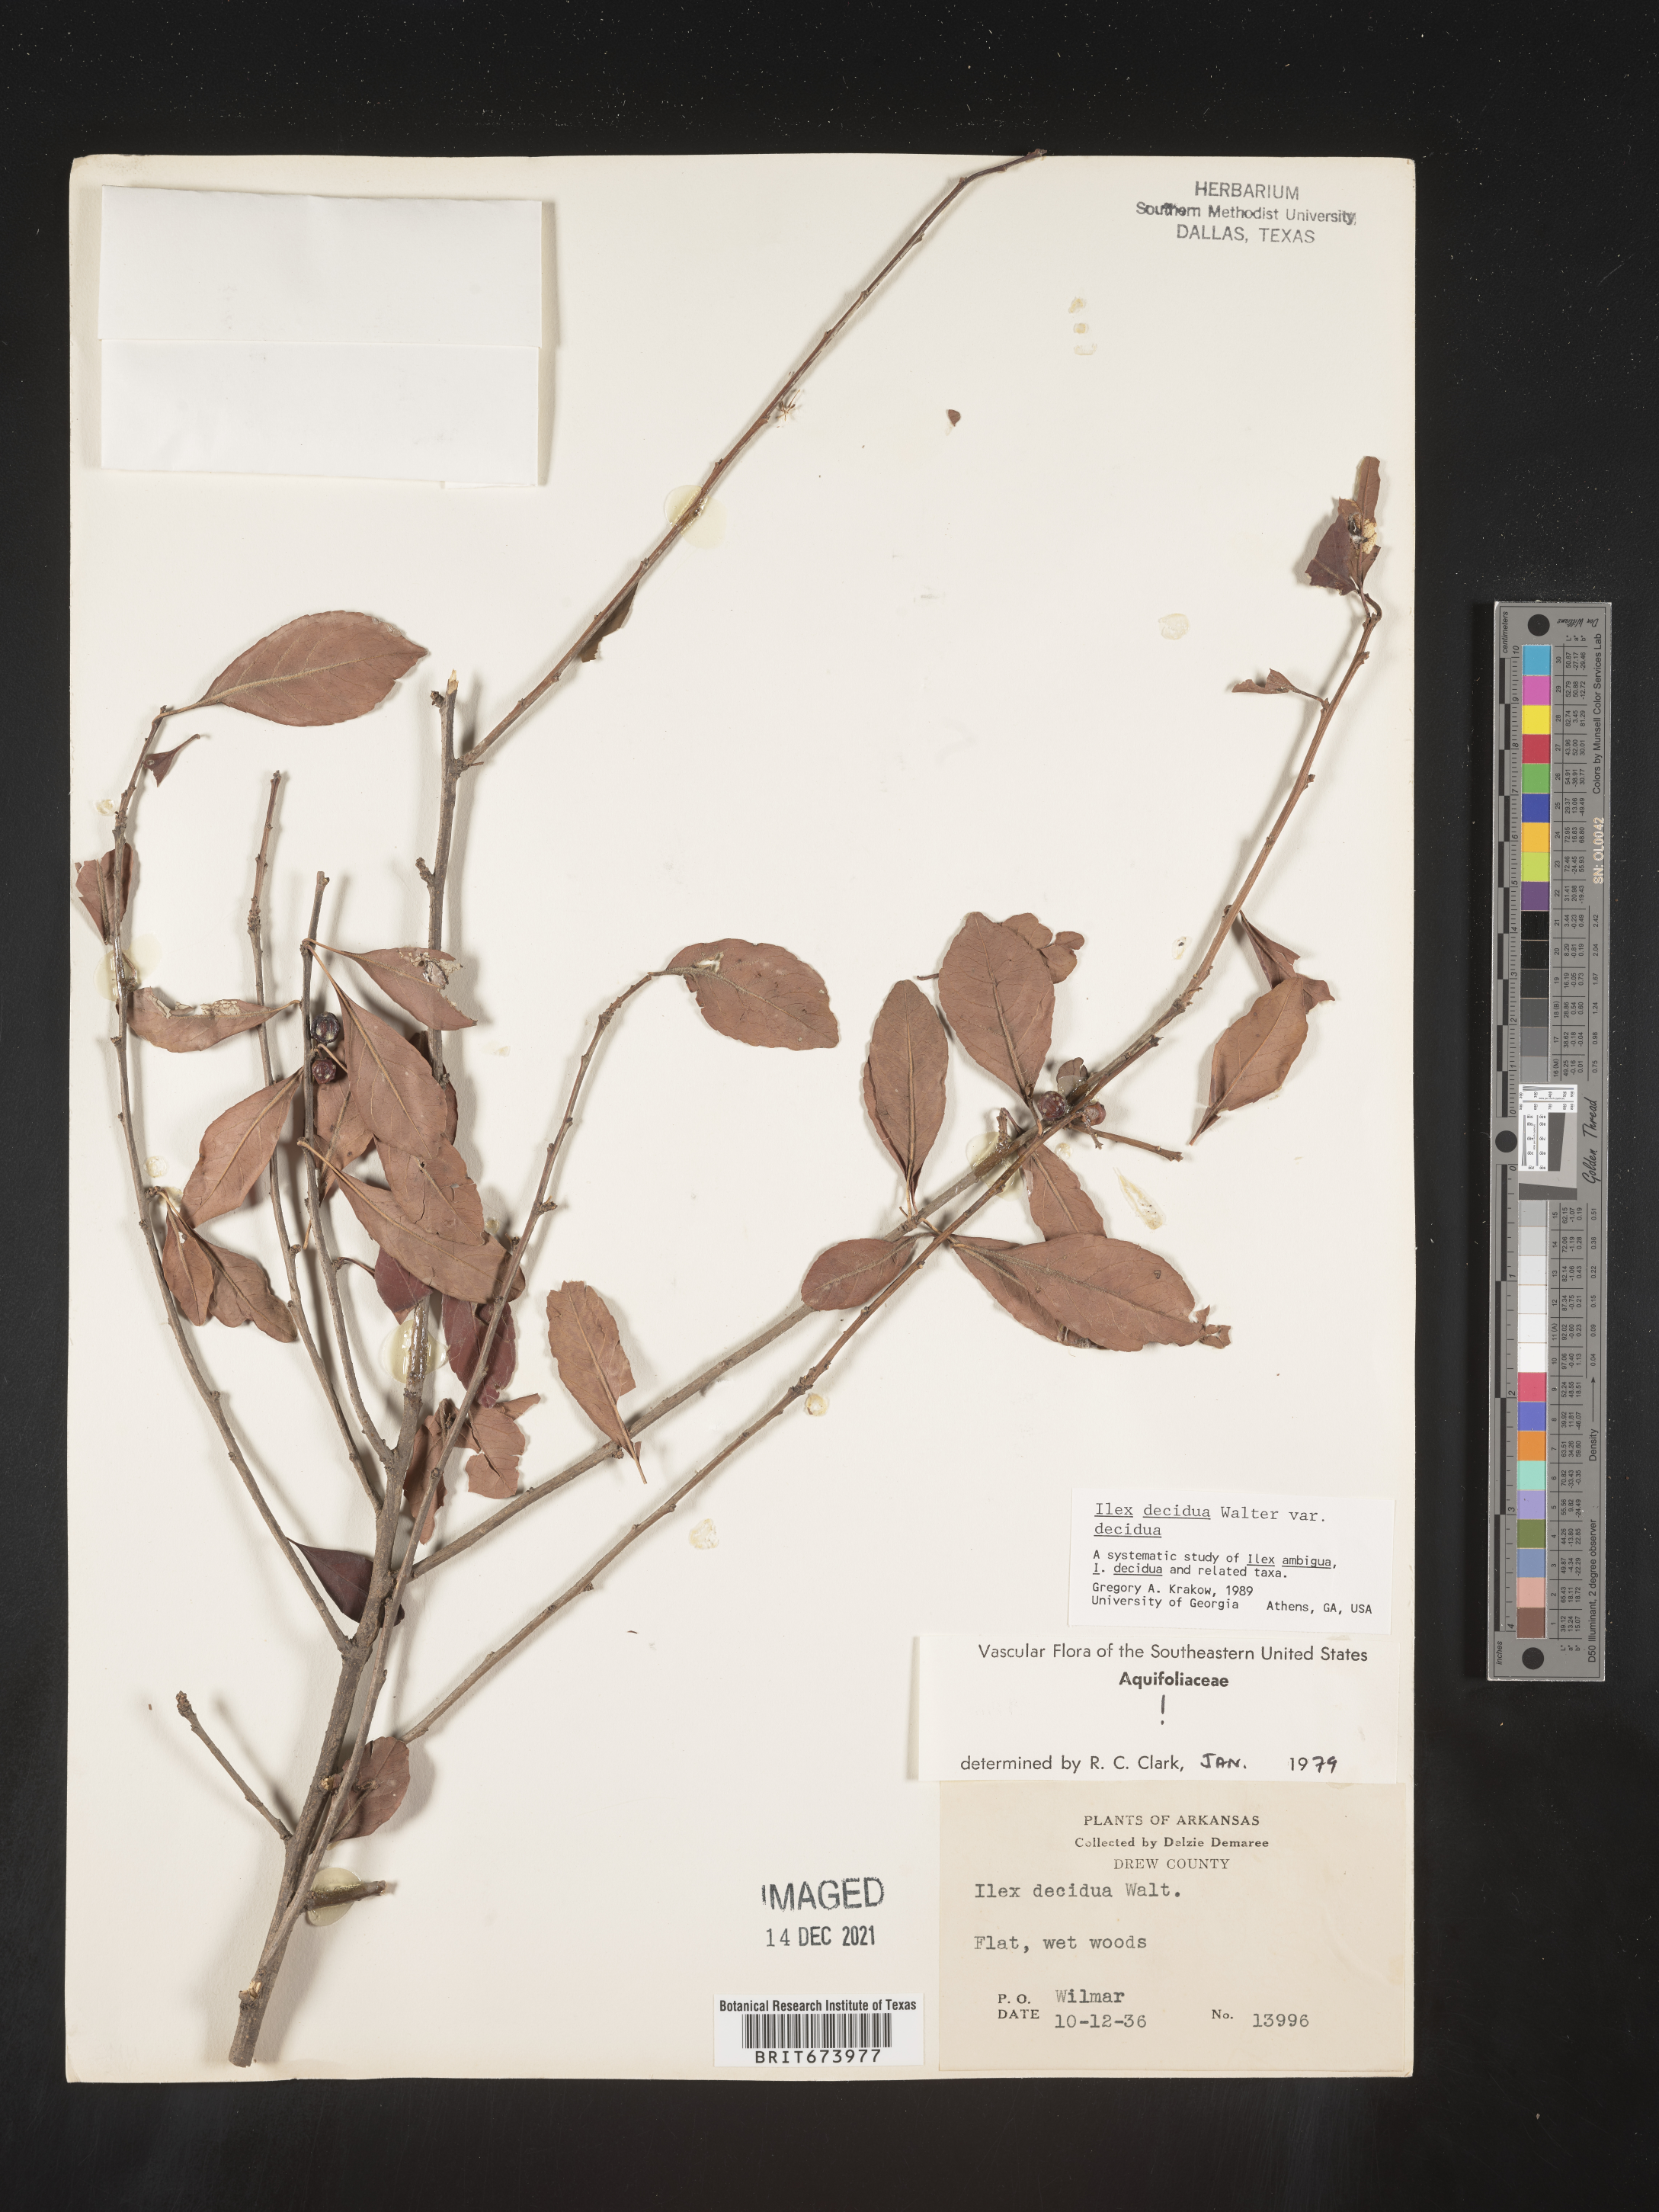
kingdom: Plantae
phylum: Tracheophyta
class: Magnoliopsida
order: Aquifoliales
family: Aquifoliaceae
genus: Ilex
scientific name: Ilex decidua
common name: Possum-haw
